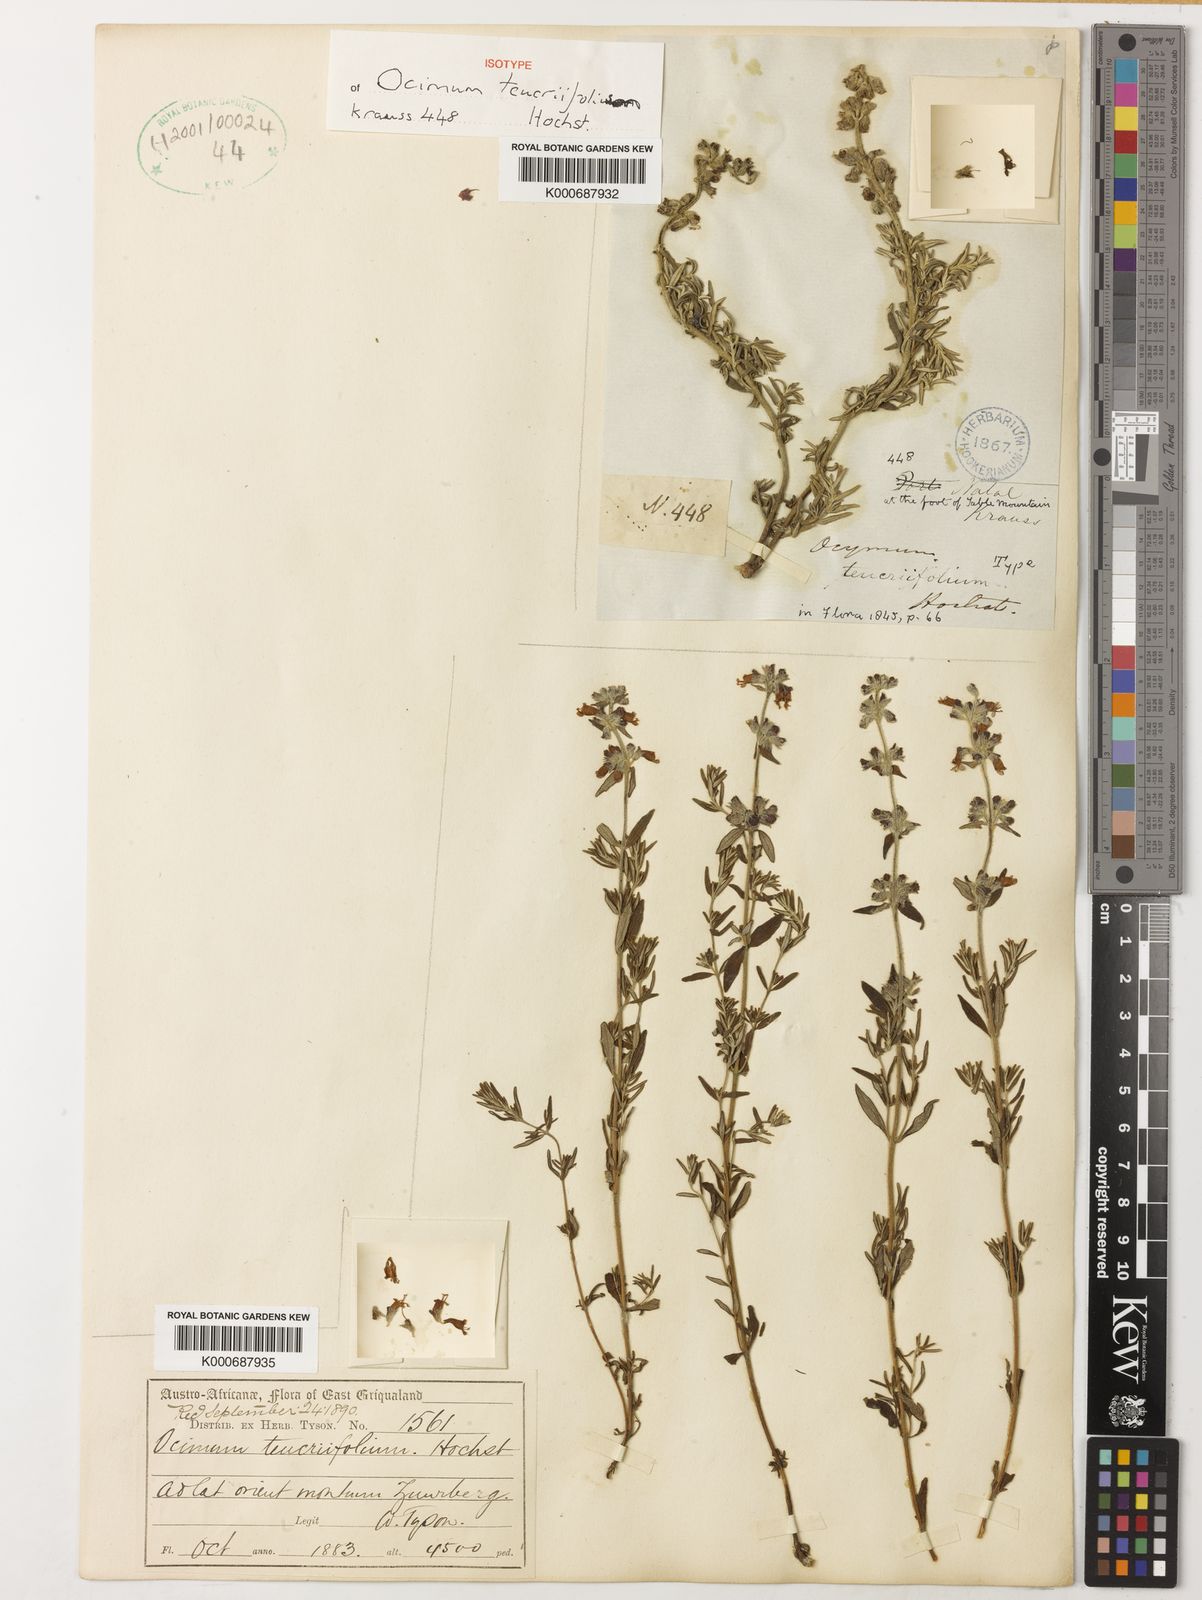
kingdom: Plantae
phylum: Tracheophyta
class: Magnoliopsida
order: Lamiales
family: Lamiaceae
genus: Syncolostemon
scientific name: Syncolostemon teucriifolius
